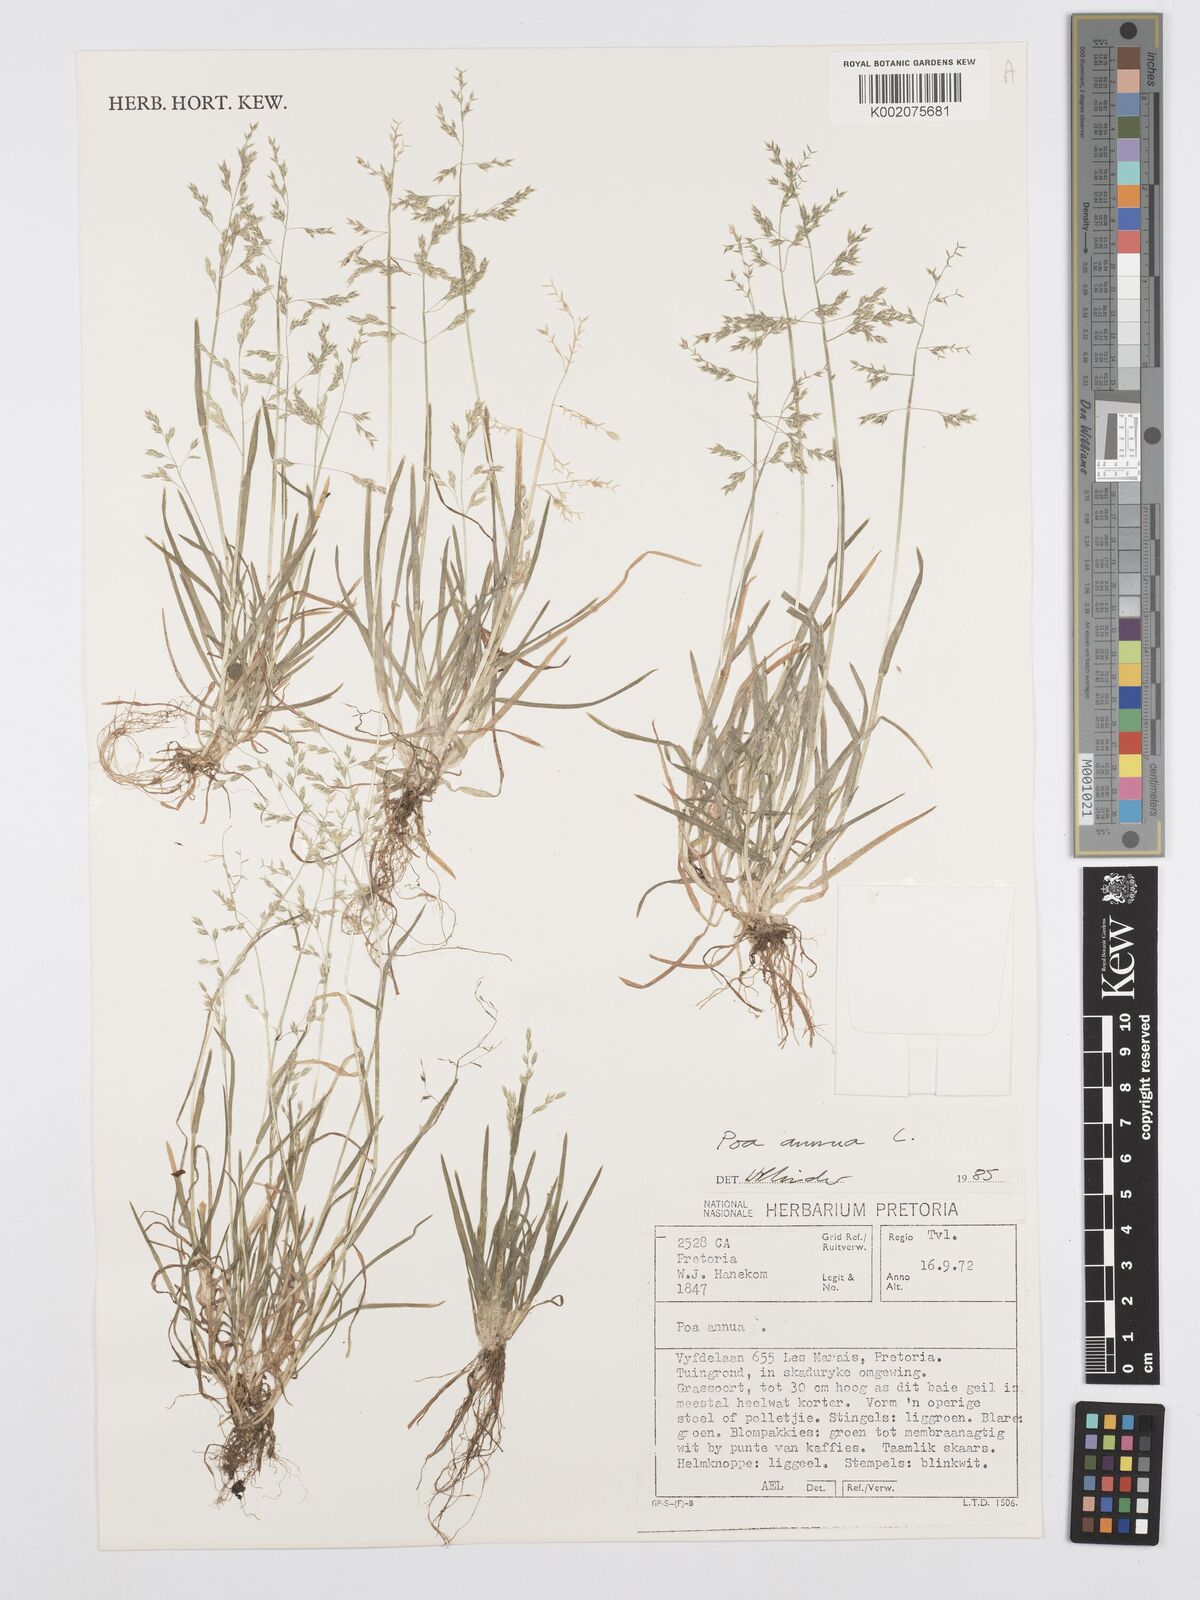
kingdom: Plantae
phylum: Tracheophyta
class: Liliopsida
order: Poales
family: Poaceae
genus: Poa
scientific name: Poa annua
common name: Annual bluegrass
